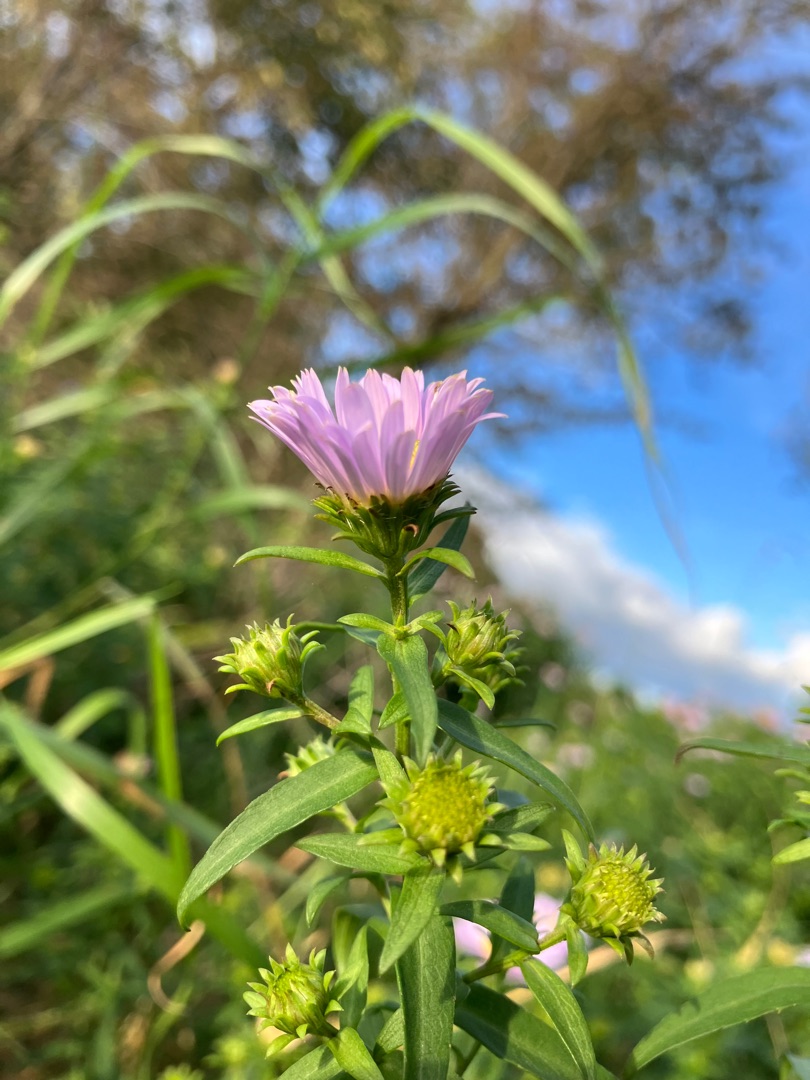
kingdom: Plantae
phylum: Tracheophyta
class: Magnoliopsida
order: Asterales
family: Asteraceae
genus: Symphyotrichum
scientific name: Symphyotrichum versicolor
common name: Broget asters
